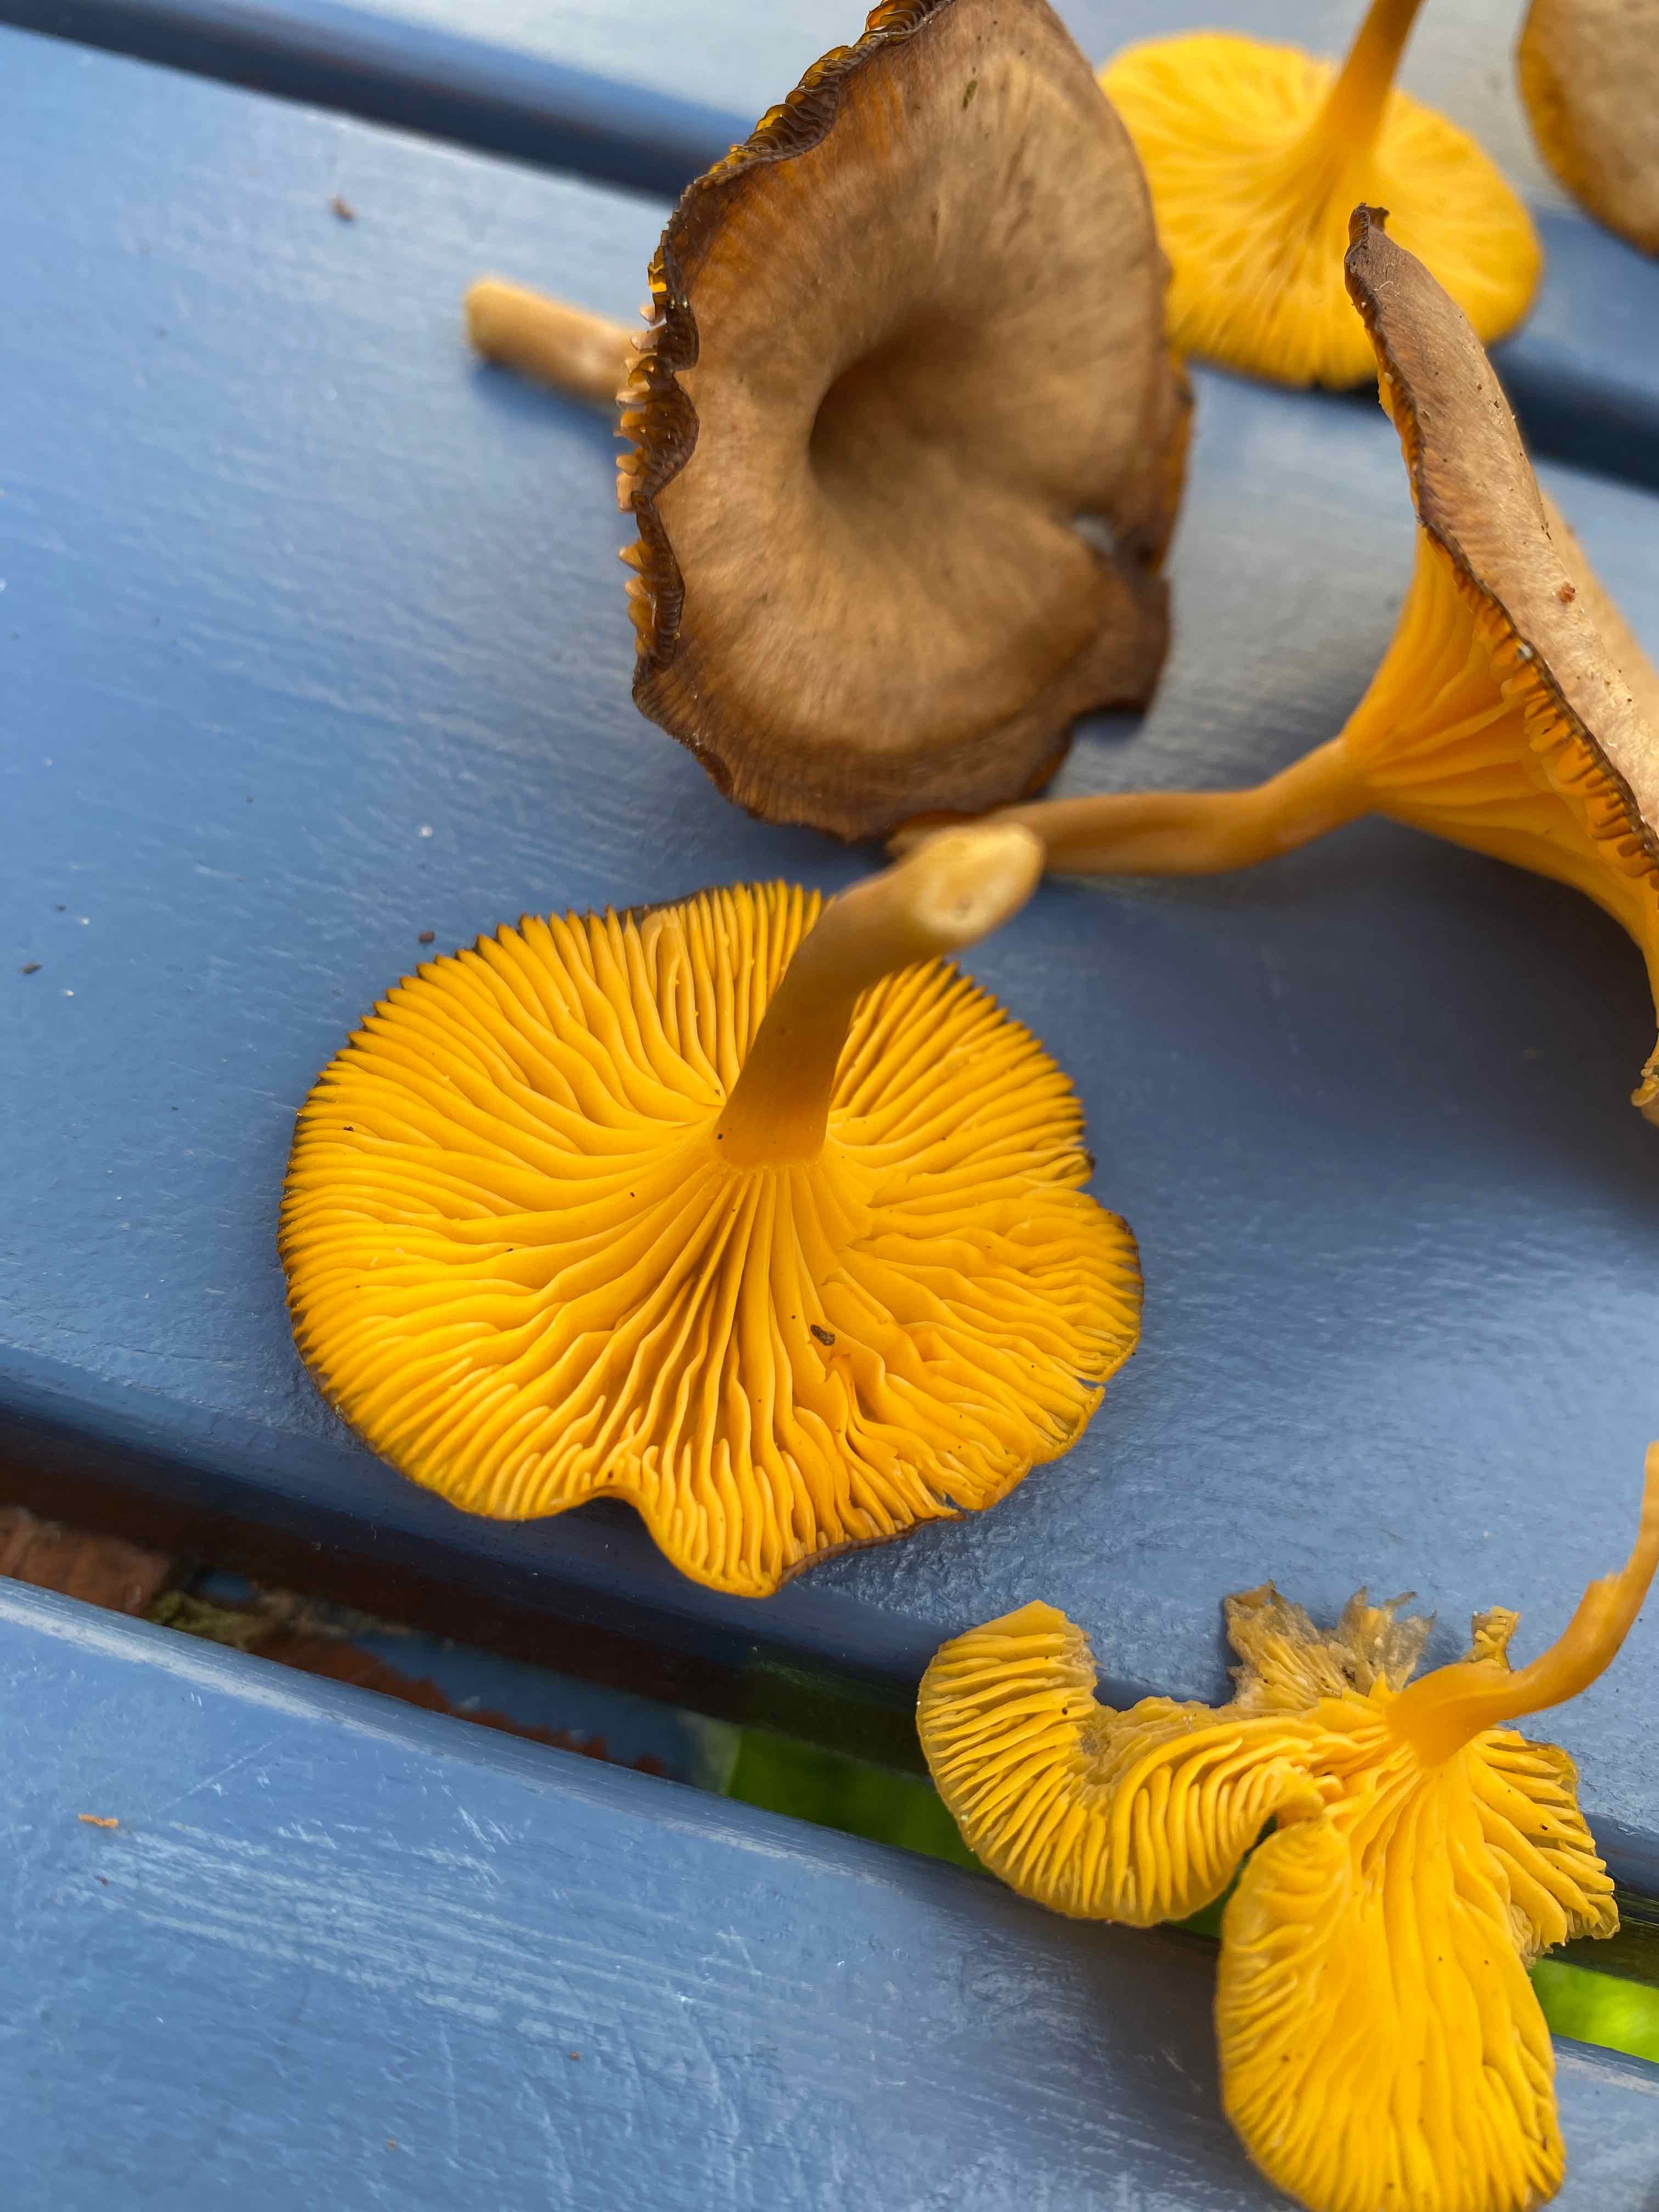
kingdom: Fungi
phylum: Basidiomycota
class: Agaricomycetes
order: Agaricales
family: Hygrophoraceae
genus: Chrysomphalina
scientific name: Chrysomphalina chrysophylla
